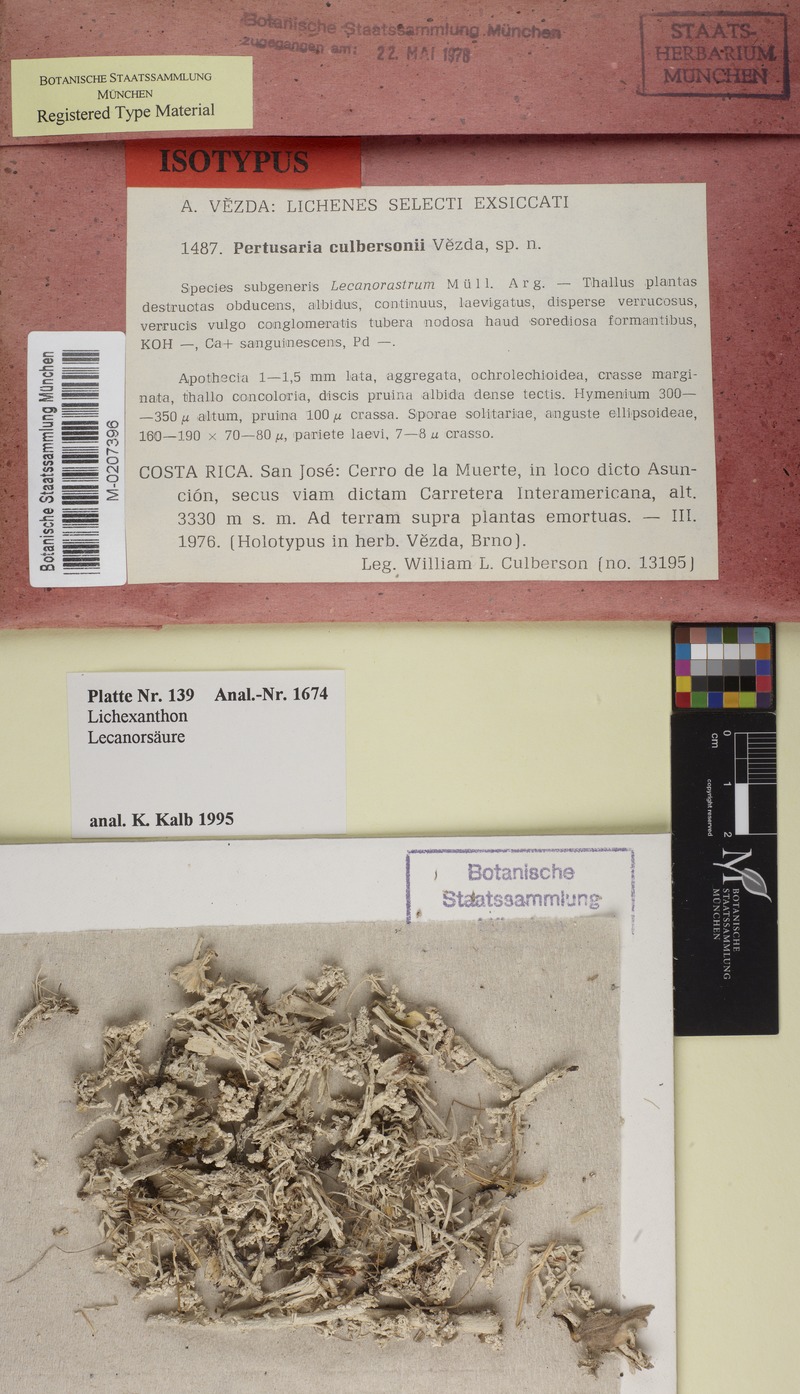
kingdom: Fungi
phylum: Ascomycota
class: Lecanoromycetes
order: Pertusariales
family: Varicellariaceae
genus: Varicellaria
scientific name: Varicellaria culbersonii
